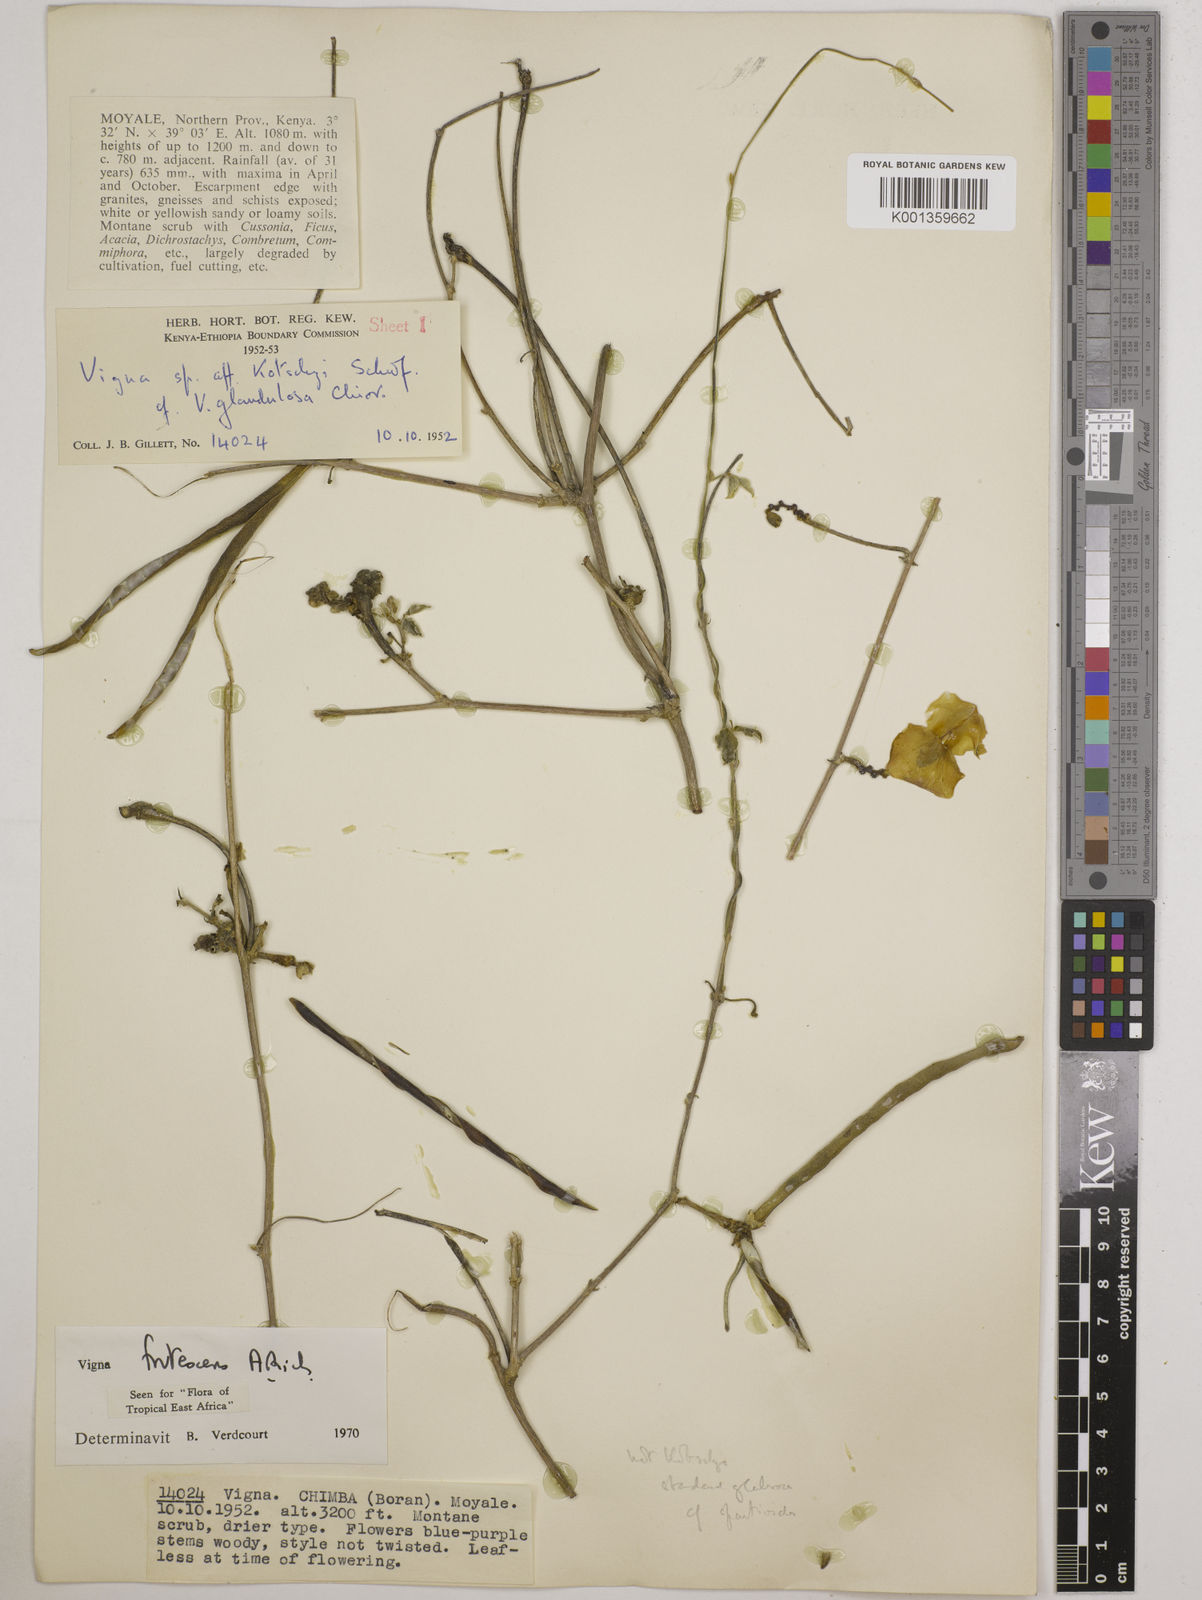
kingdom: Plantae
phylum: Tracheophyta
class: Magnoliopsida
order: Fabales
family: Fabaceae
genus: Vigna
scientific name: Vigna frutescens
